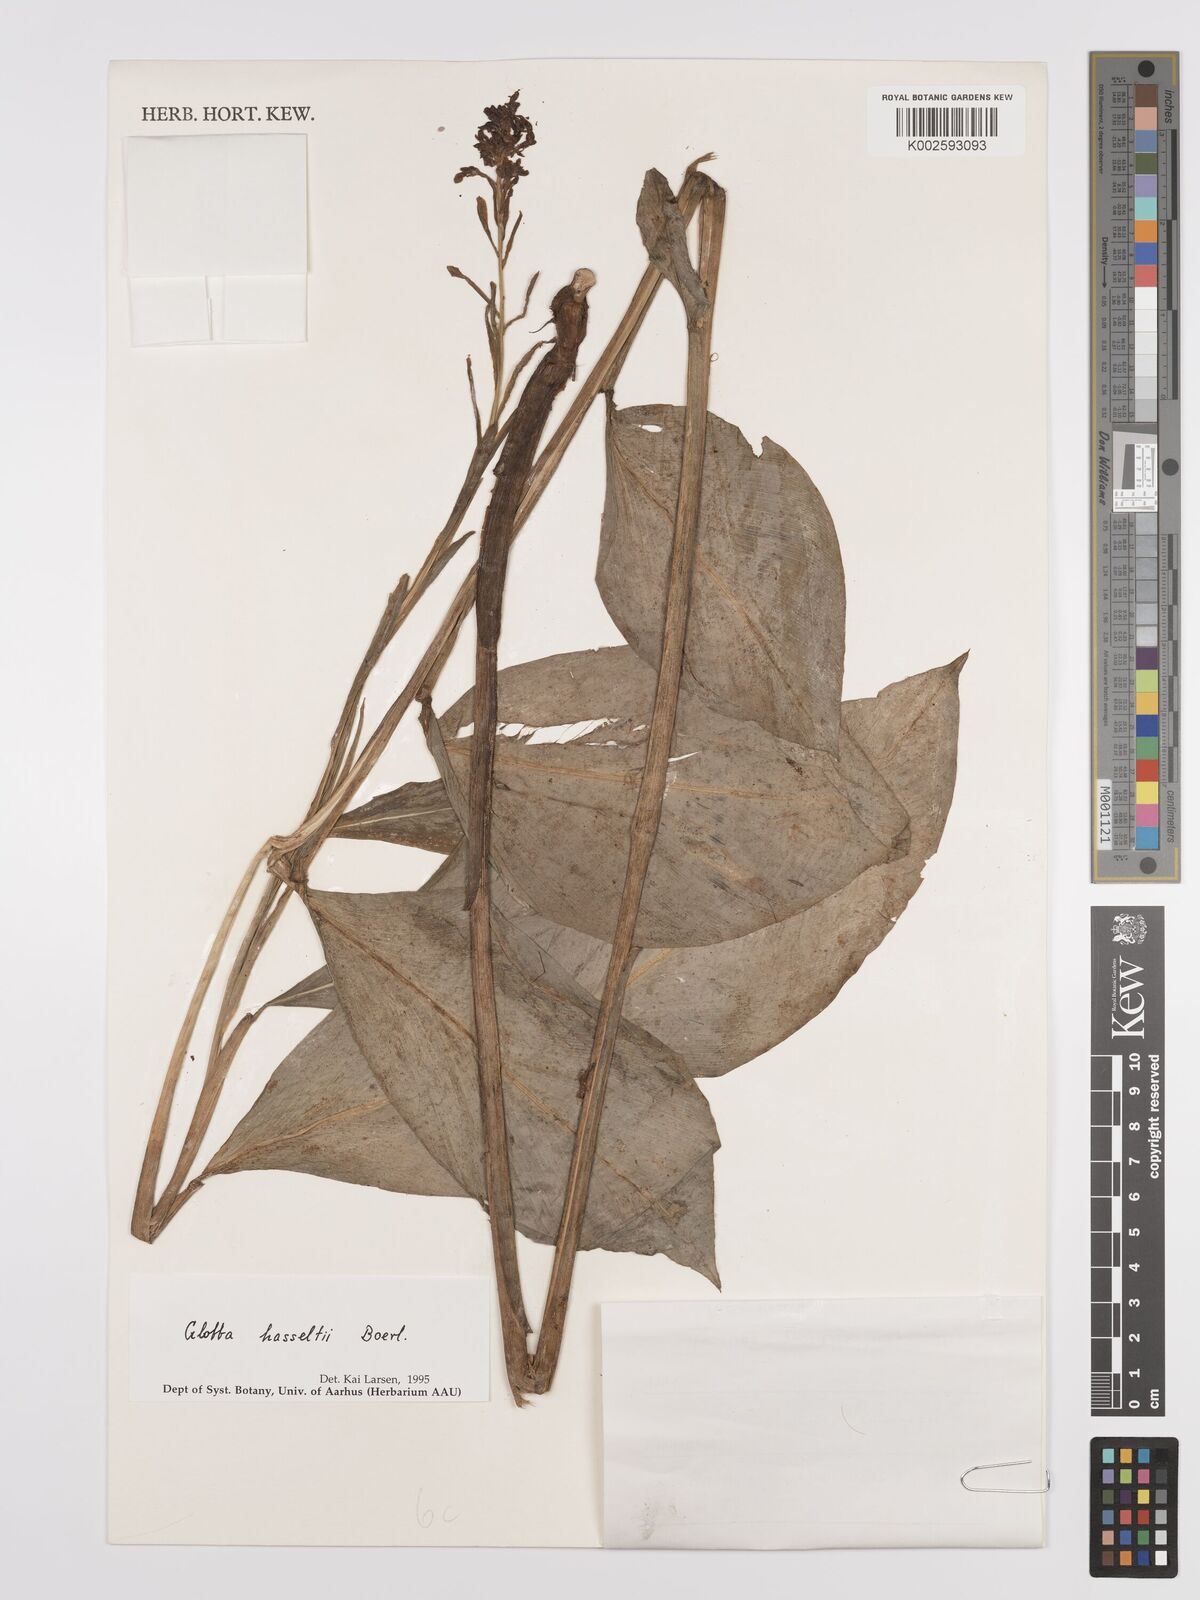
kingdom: Plantae
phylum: Tracheophyta
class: Liliopsida
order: Zingiberales
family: Zingiberaceae
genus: Globba
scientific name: Globba hasseltii
